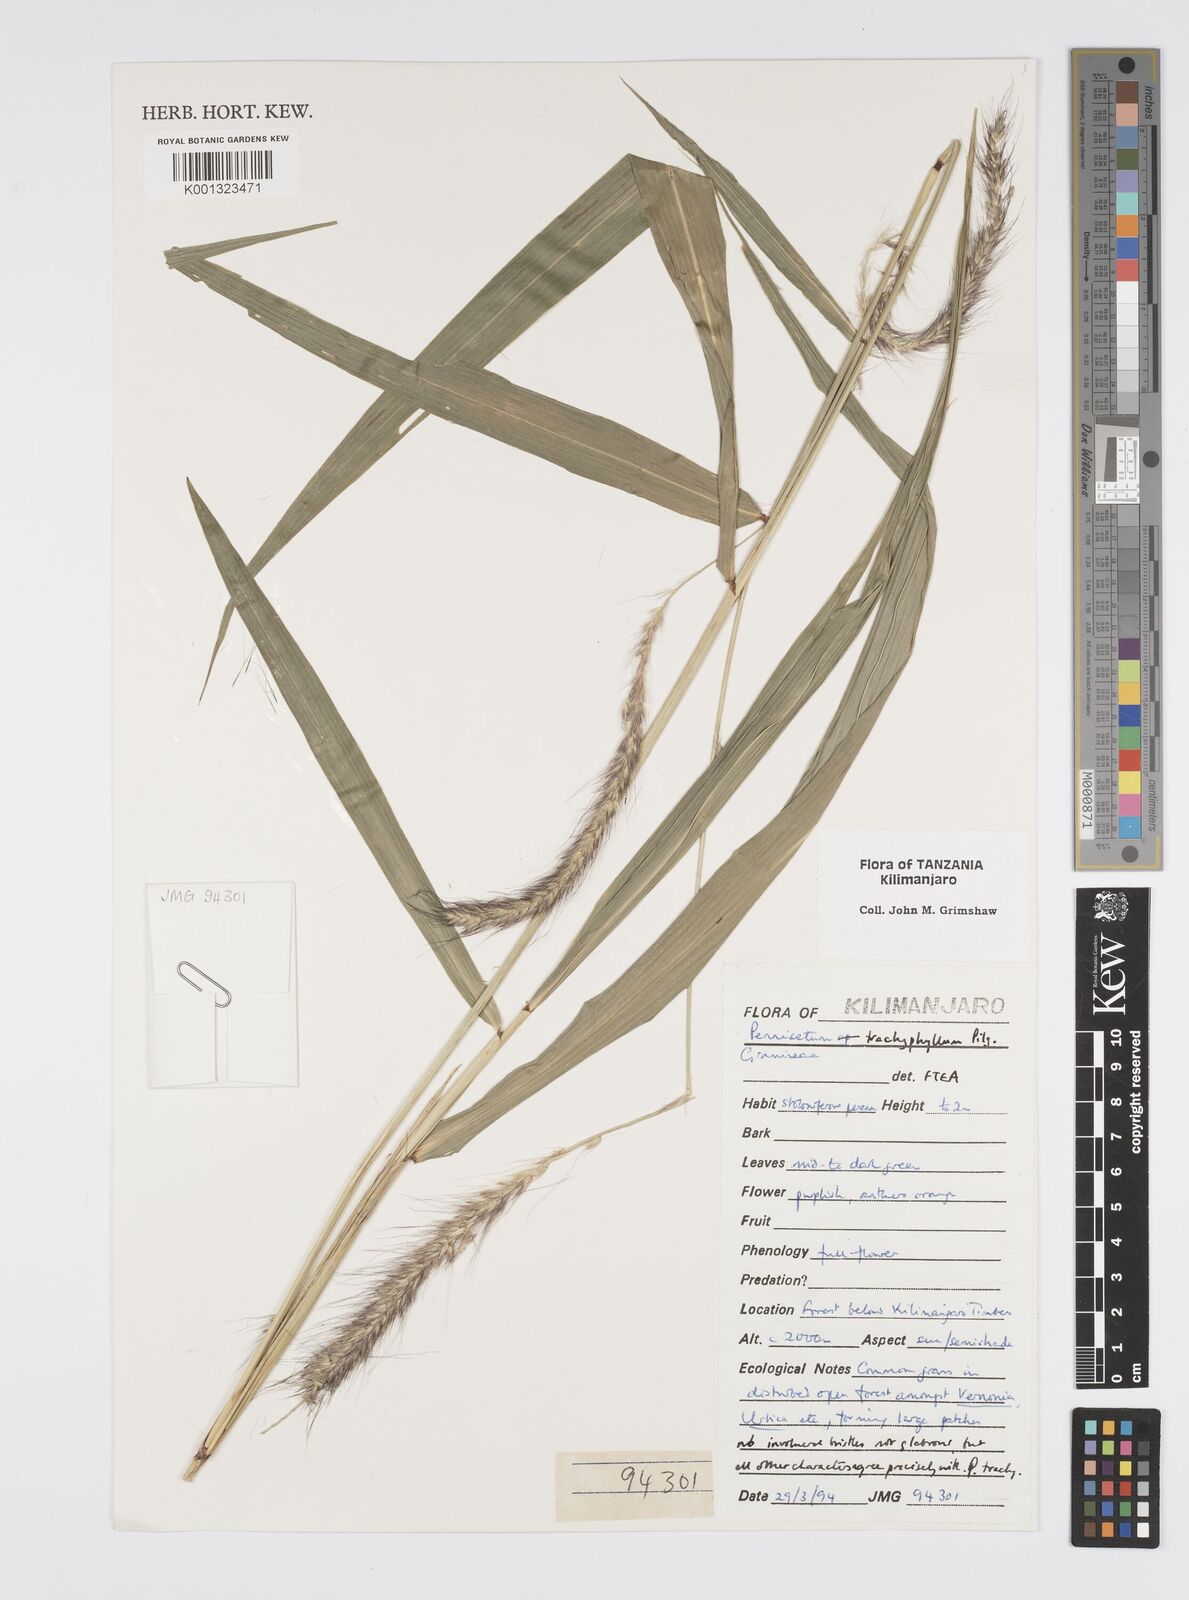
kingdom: Plantae
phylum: Tracheophyta
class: Liliopsida
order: Poales
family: Poaceae
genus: Cenchrus
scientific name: Cenchrus trachyphyllus
